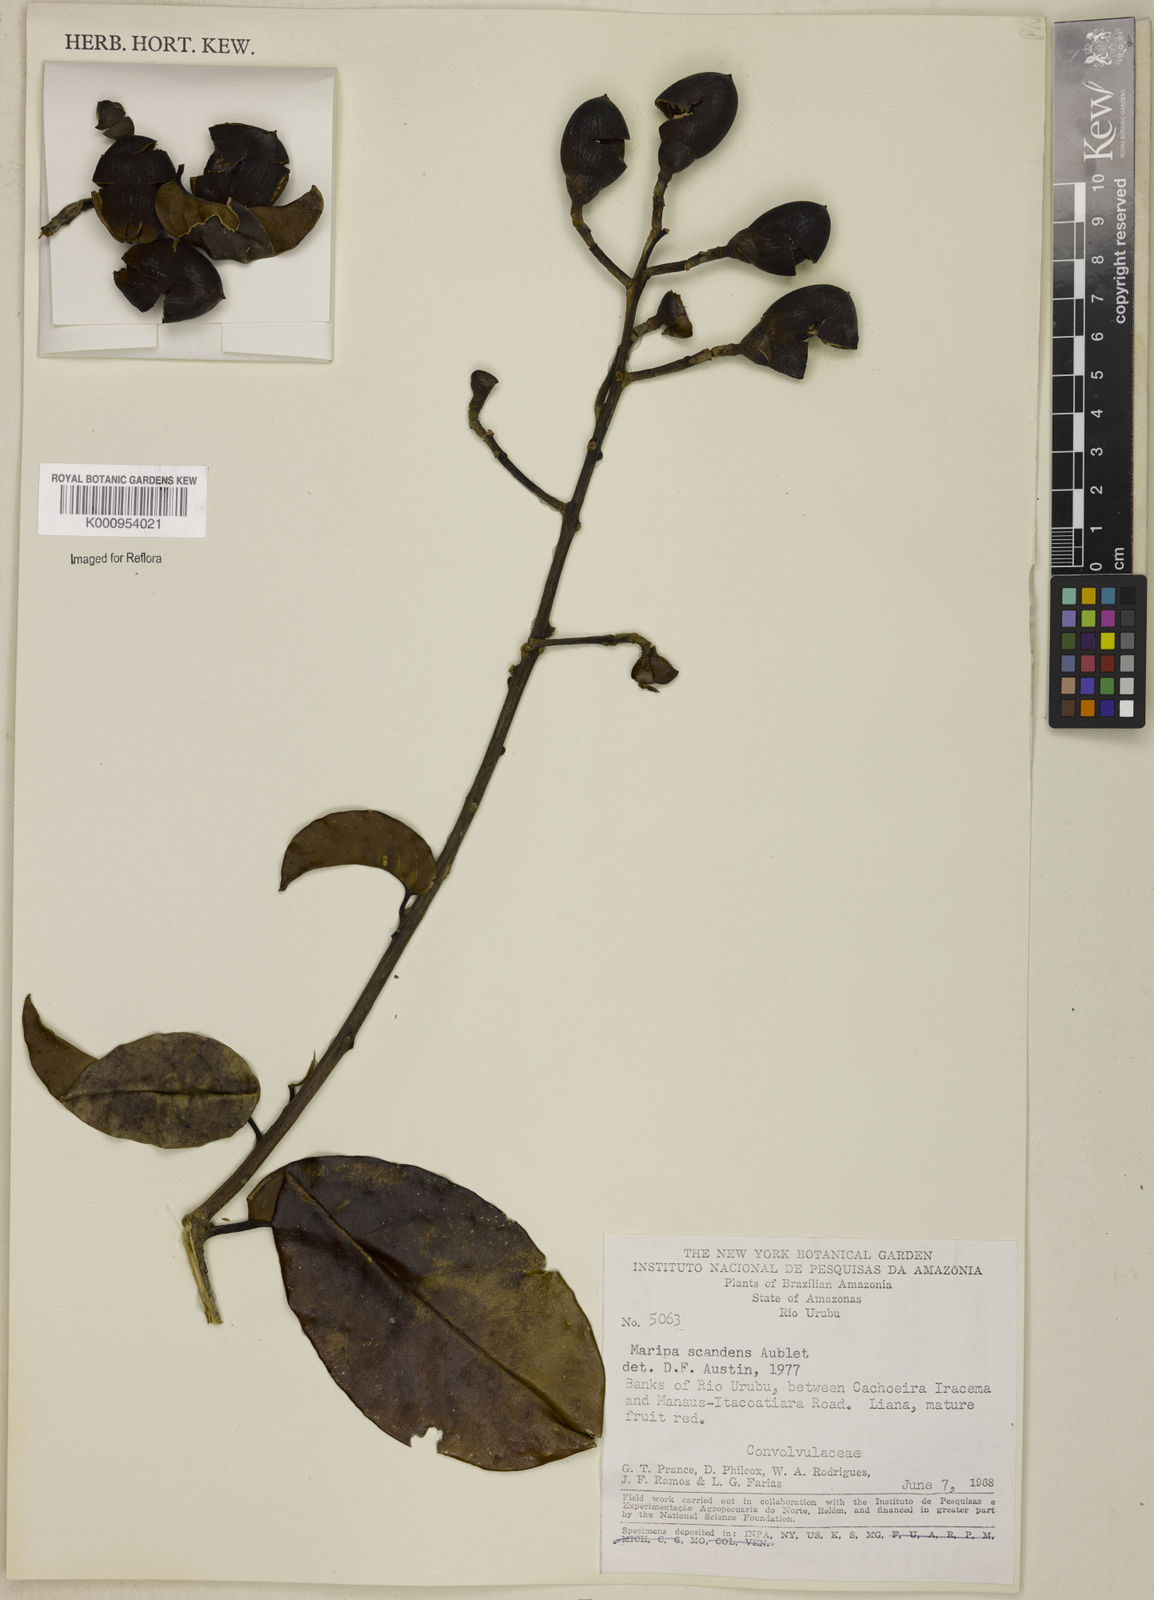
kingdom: Plantae
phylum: Tracheophyta
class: Magnoliopsida
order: Solanales
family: Convolvulaceae
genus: Maripa
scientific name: Maripa scandens
